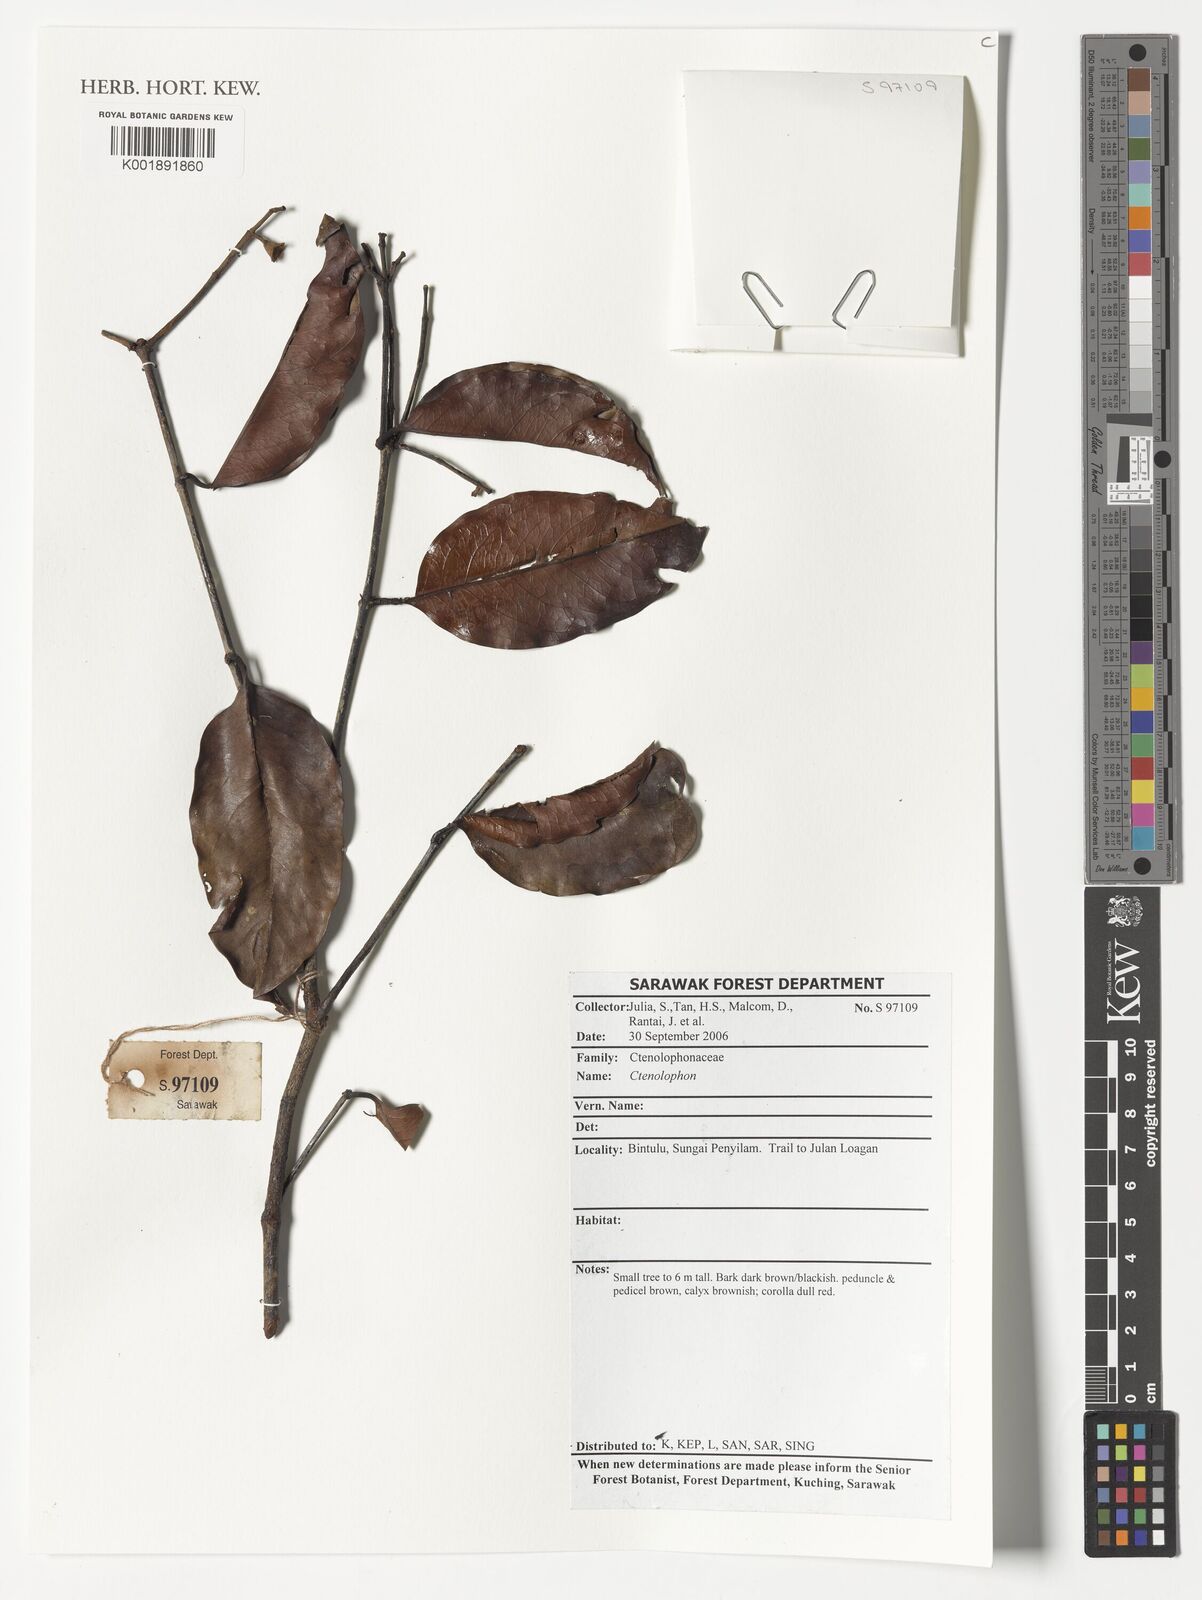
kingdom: Plantae
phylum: Tracheophyta
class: Magnoliopsida
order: Malpighiales
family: Ctenolophonaceae
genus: Ctenolophon
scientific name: Ctenolophon
